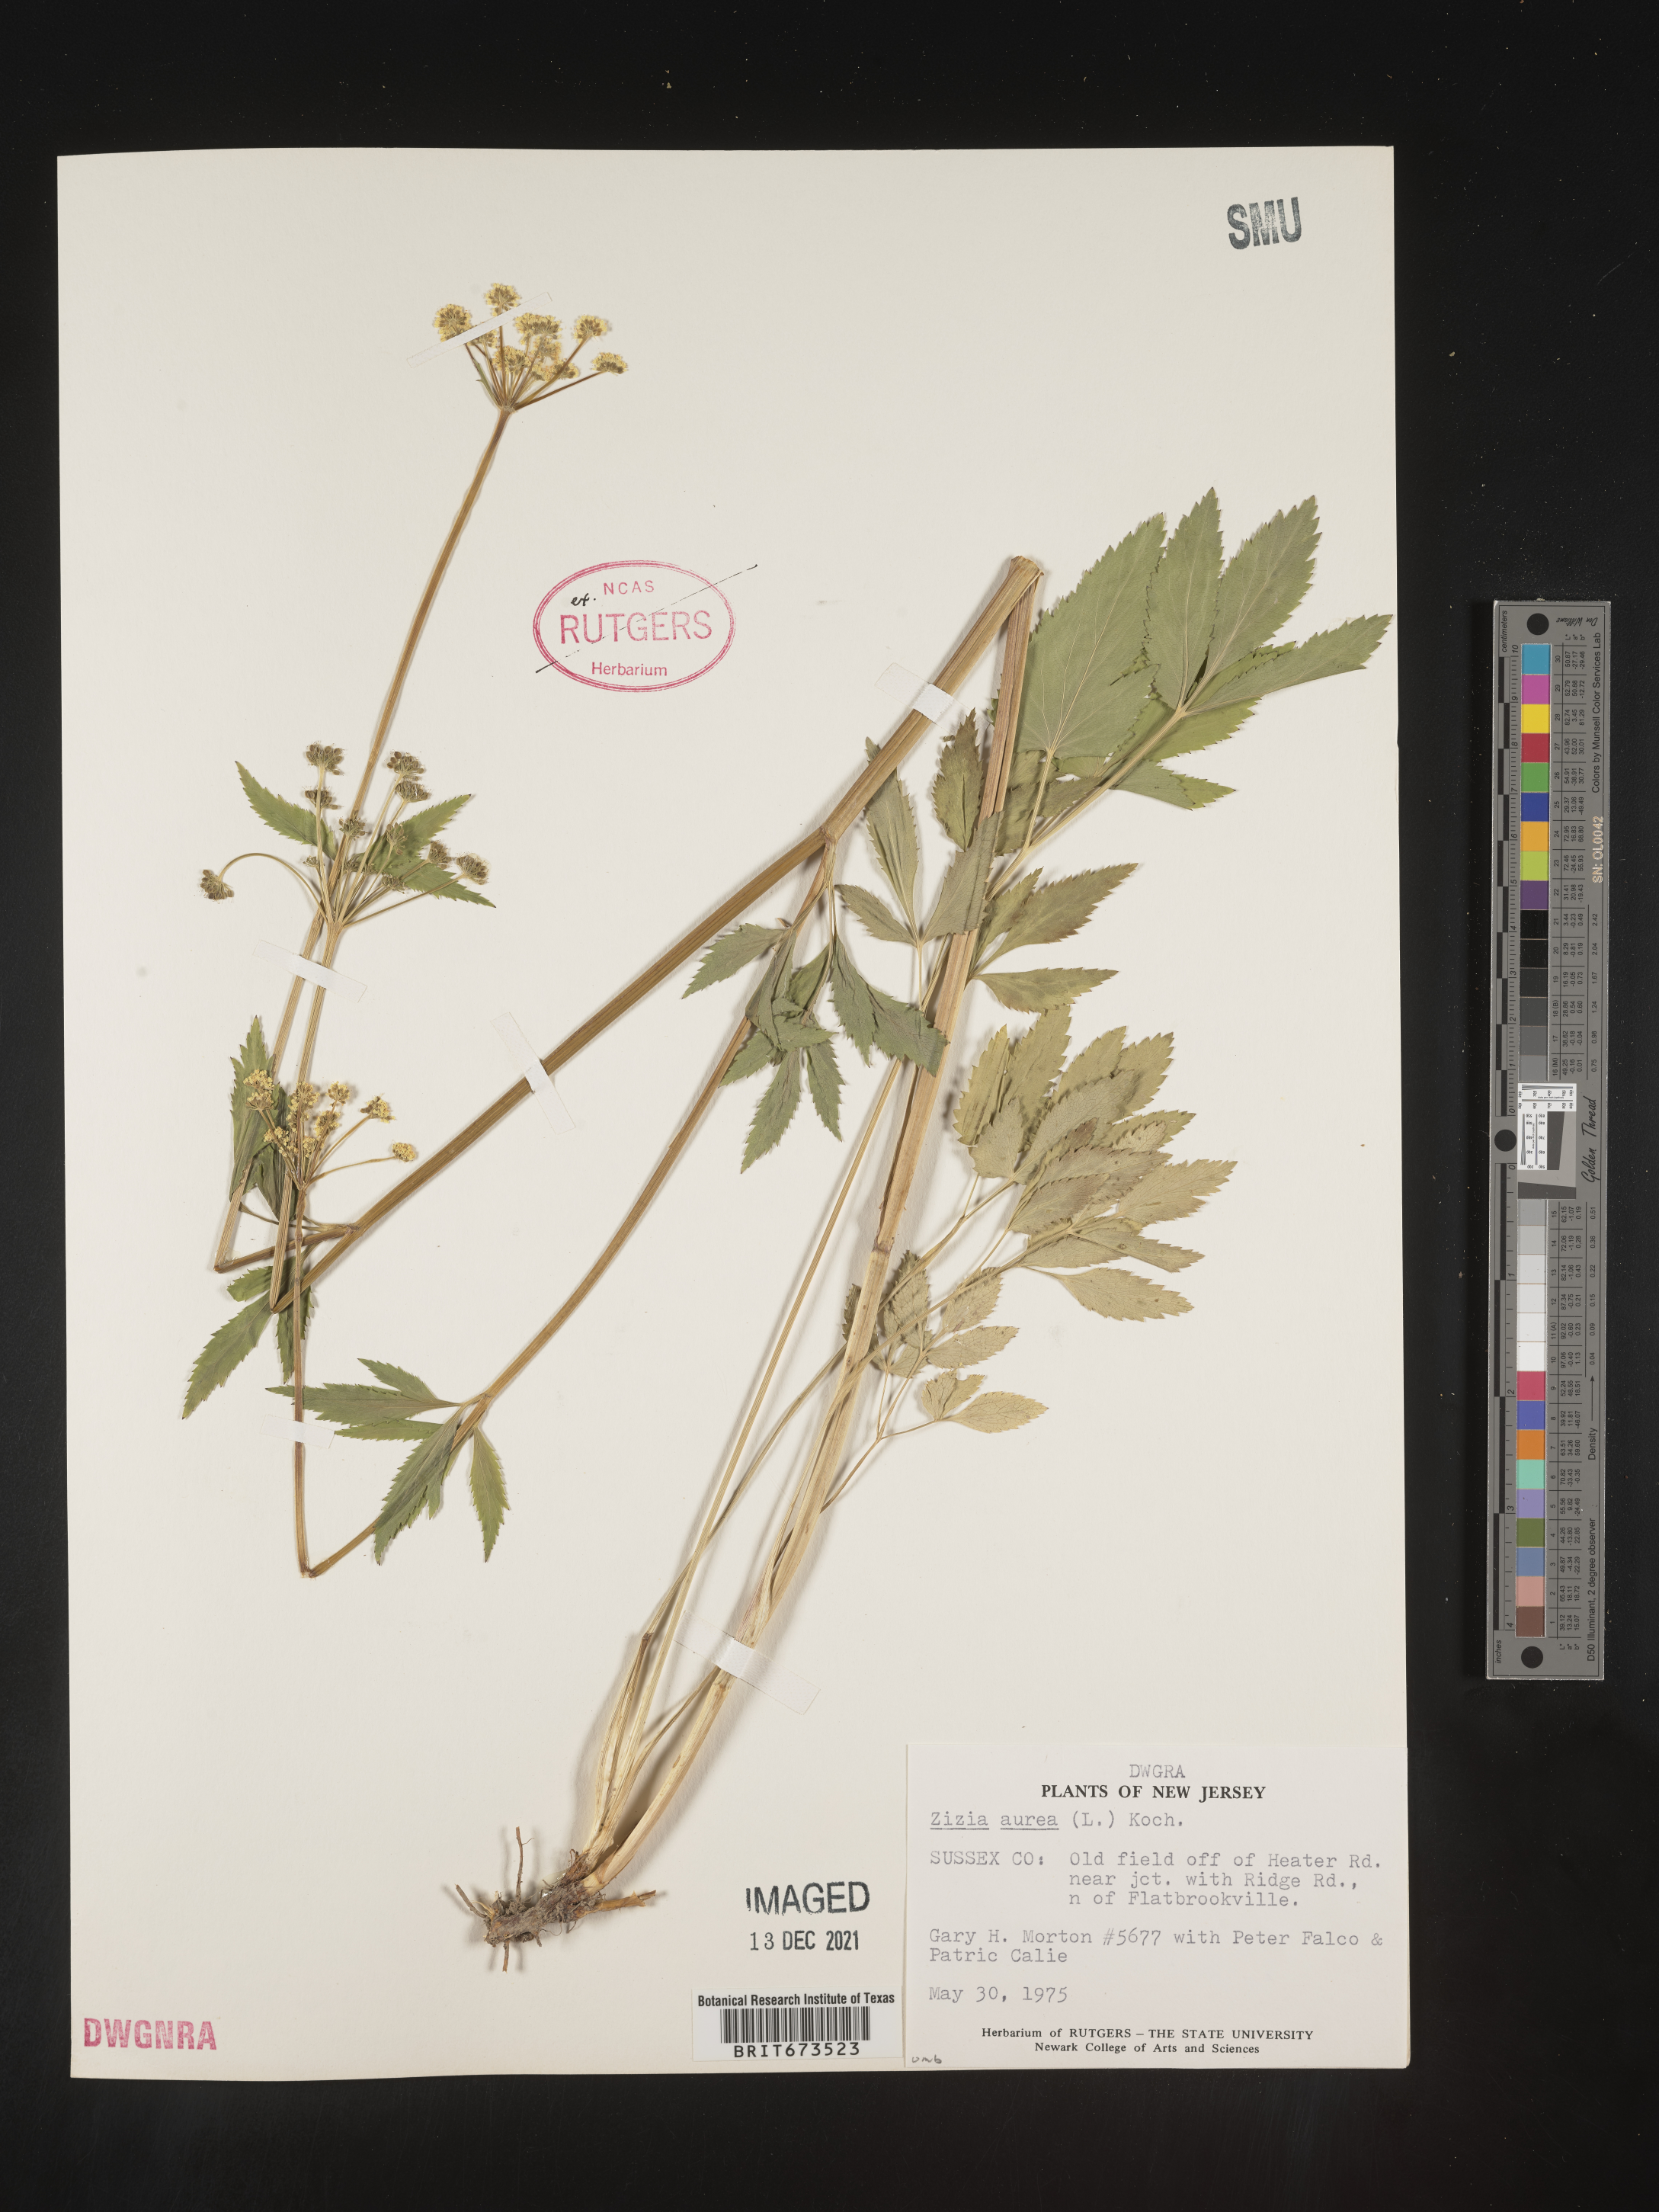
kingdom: Plantae
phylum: Tracheophyta
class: Magnoliopsida
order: Apiales
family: Apiaceae
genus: Zizia
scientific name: Zizia aurea
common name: Golden alexanders
